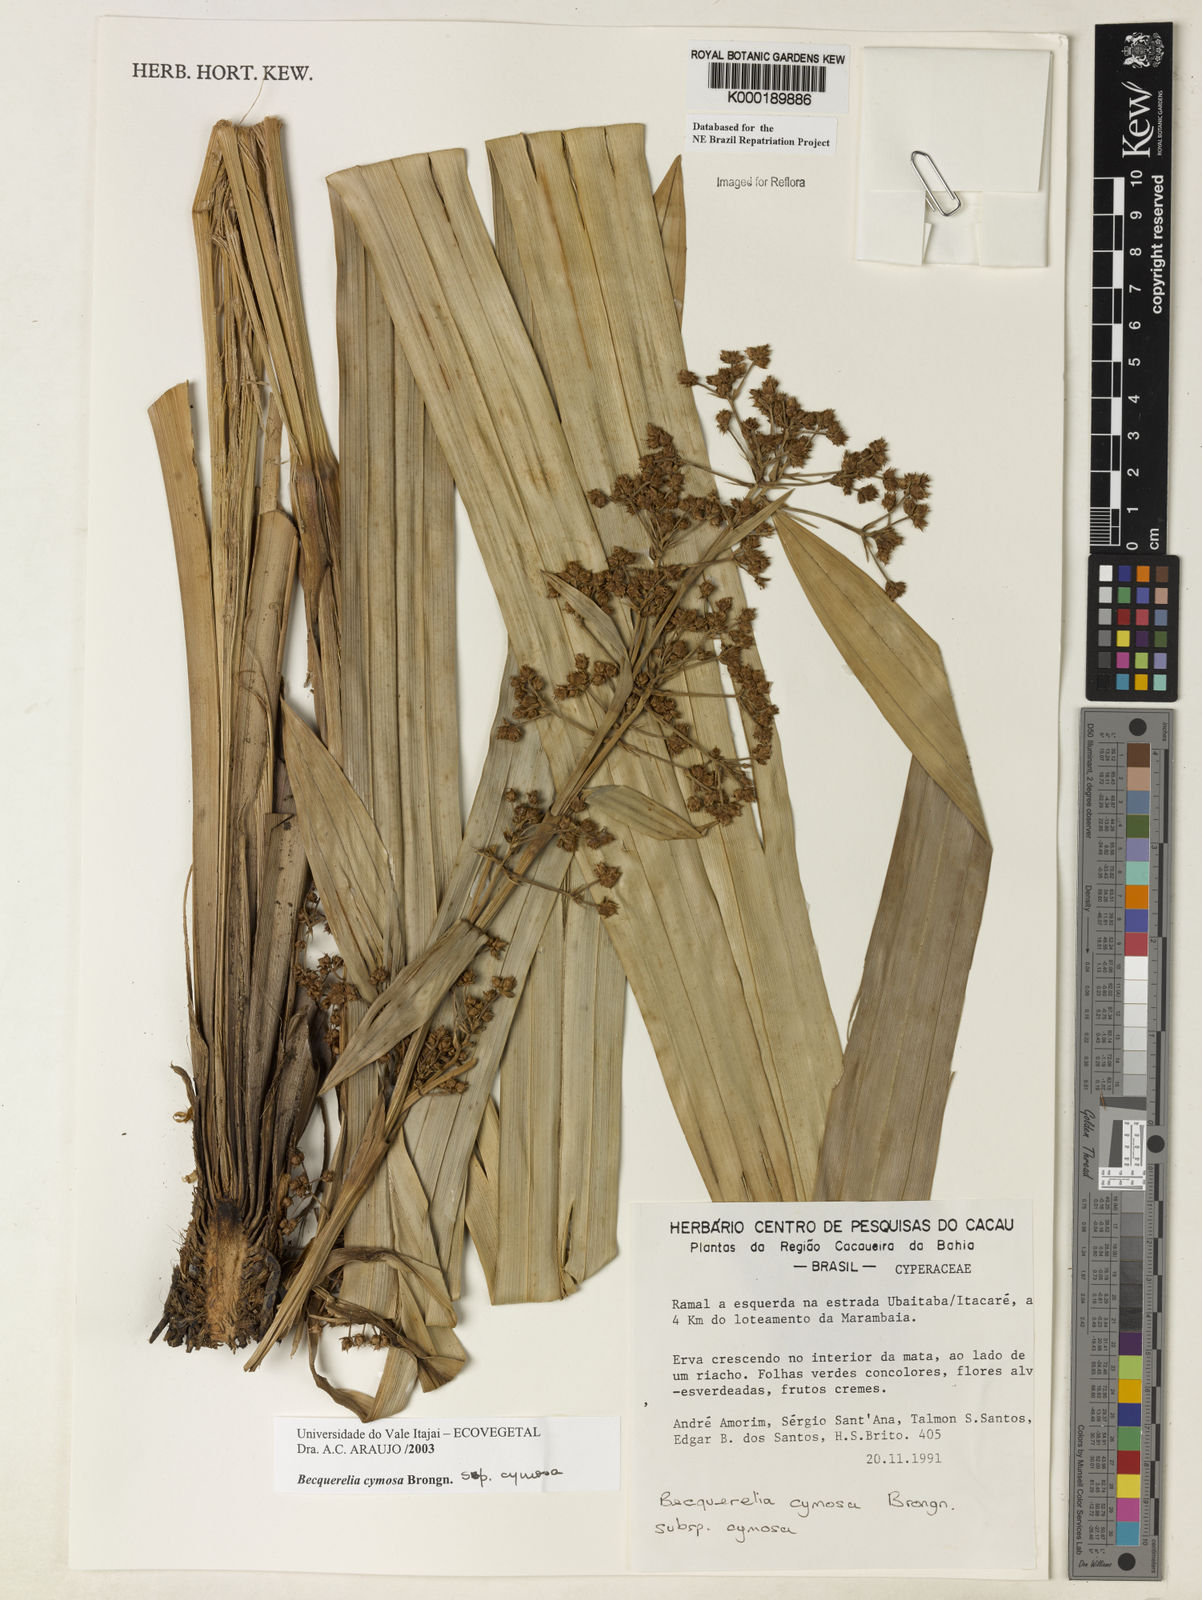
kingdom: Plantae
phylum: Tracheophyta
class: Liliopsida
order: Poales
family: Cyperaceae
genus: Becquerelia
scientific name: Becquerelia cymosa
